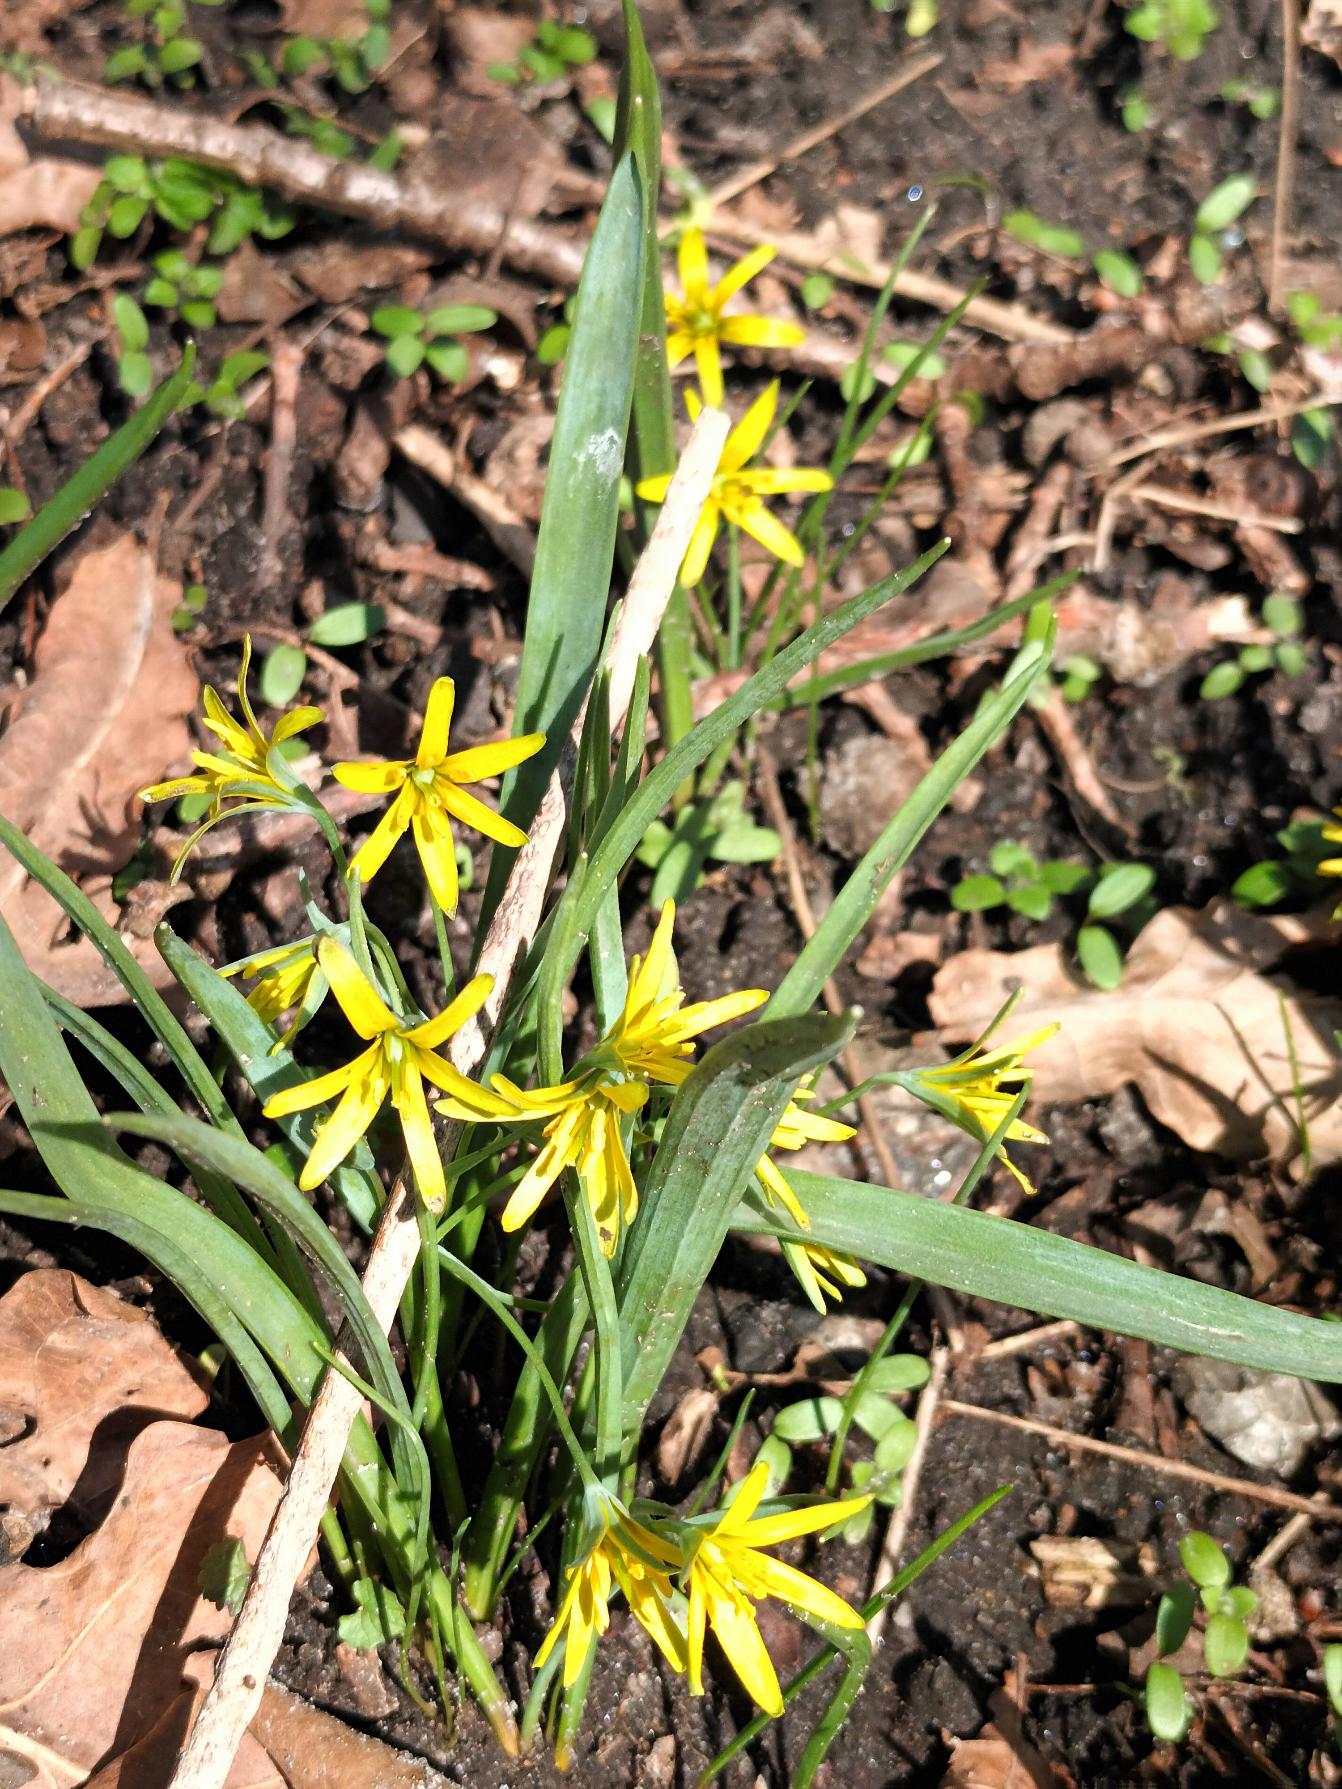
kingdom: Plantae
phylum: Tracheophyta
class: Liliopsida
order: Liliales
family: Liliaceae
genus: Gagea
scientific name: Gagea lutea
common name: Almindelig guldstjerne
